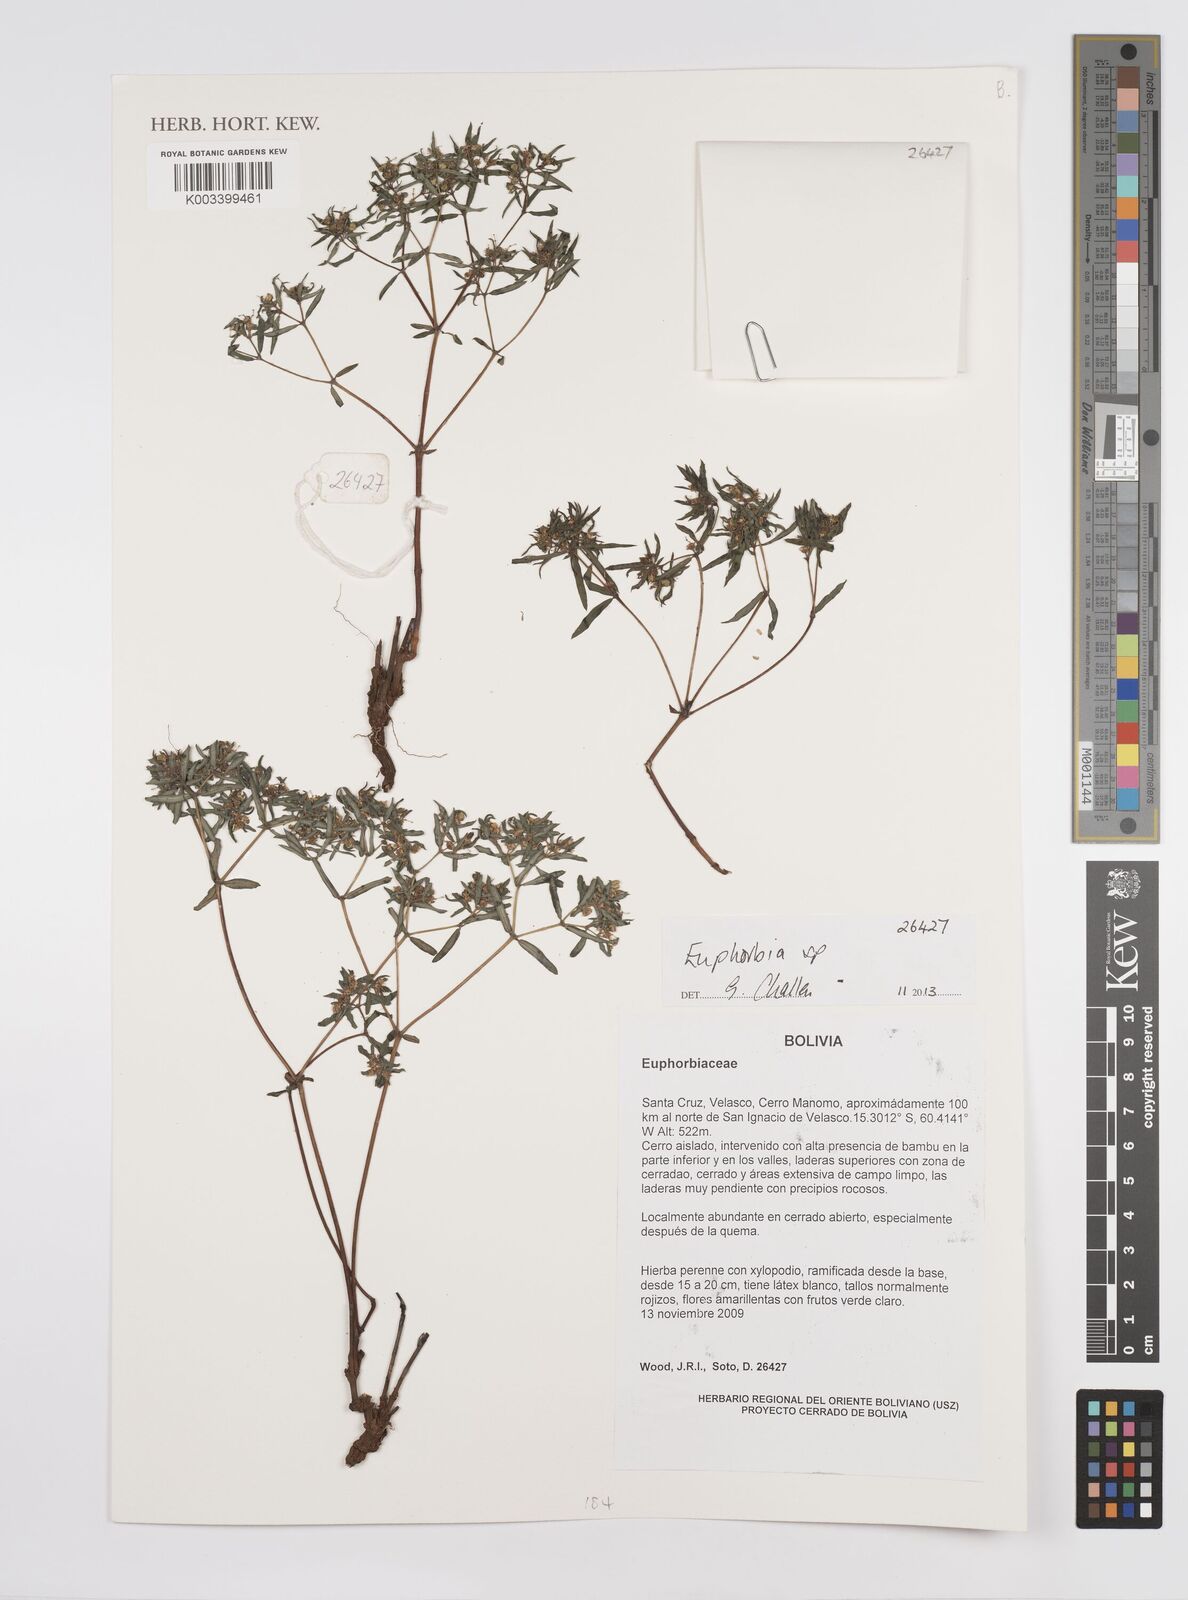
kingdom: Plantae
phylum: Tracheophyta
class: Magnoliopsida
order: Malpighiales
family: Euphorbiaceae
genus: Euphorbia
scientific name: Euphorbia
